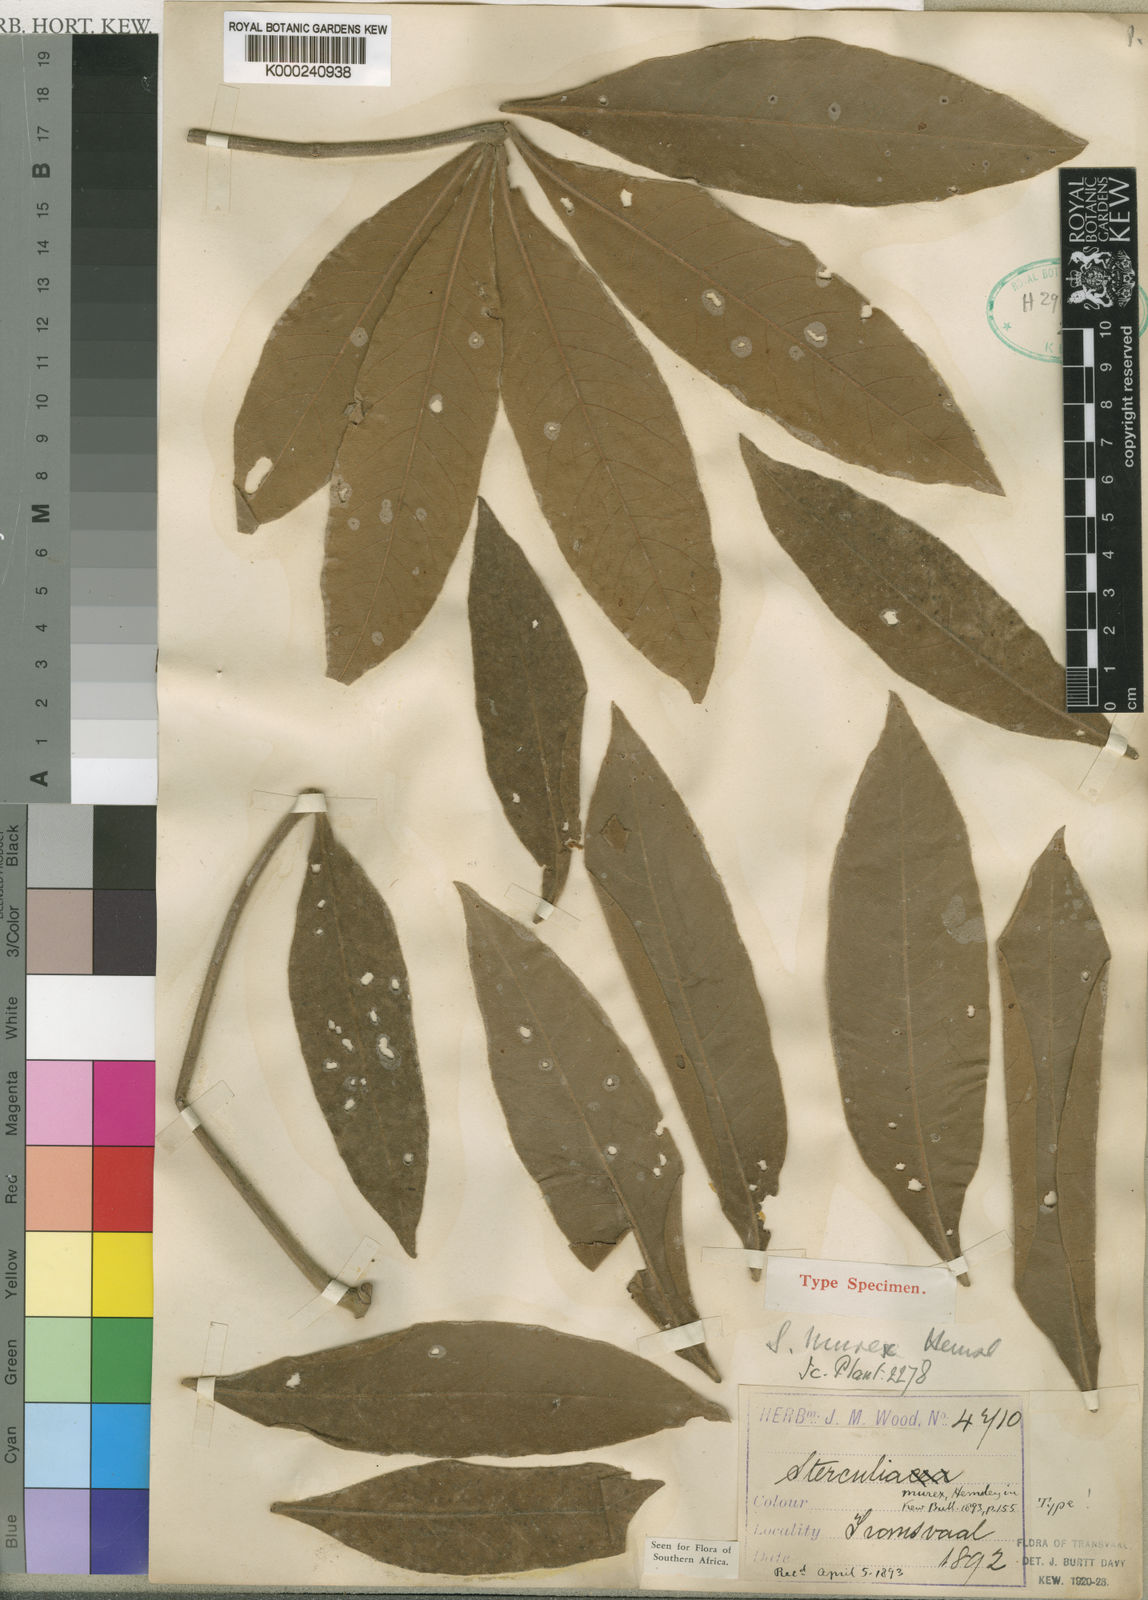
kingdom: Plantae
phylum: Tracheophyta
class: Magnoliopsida
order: Malvales
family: Malvaceae
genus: Sterculia
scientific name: Sterculia murex
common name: Lowveld star-chestnut
